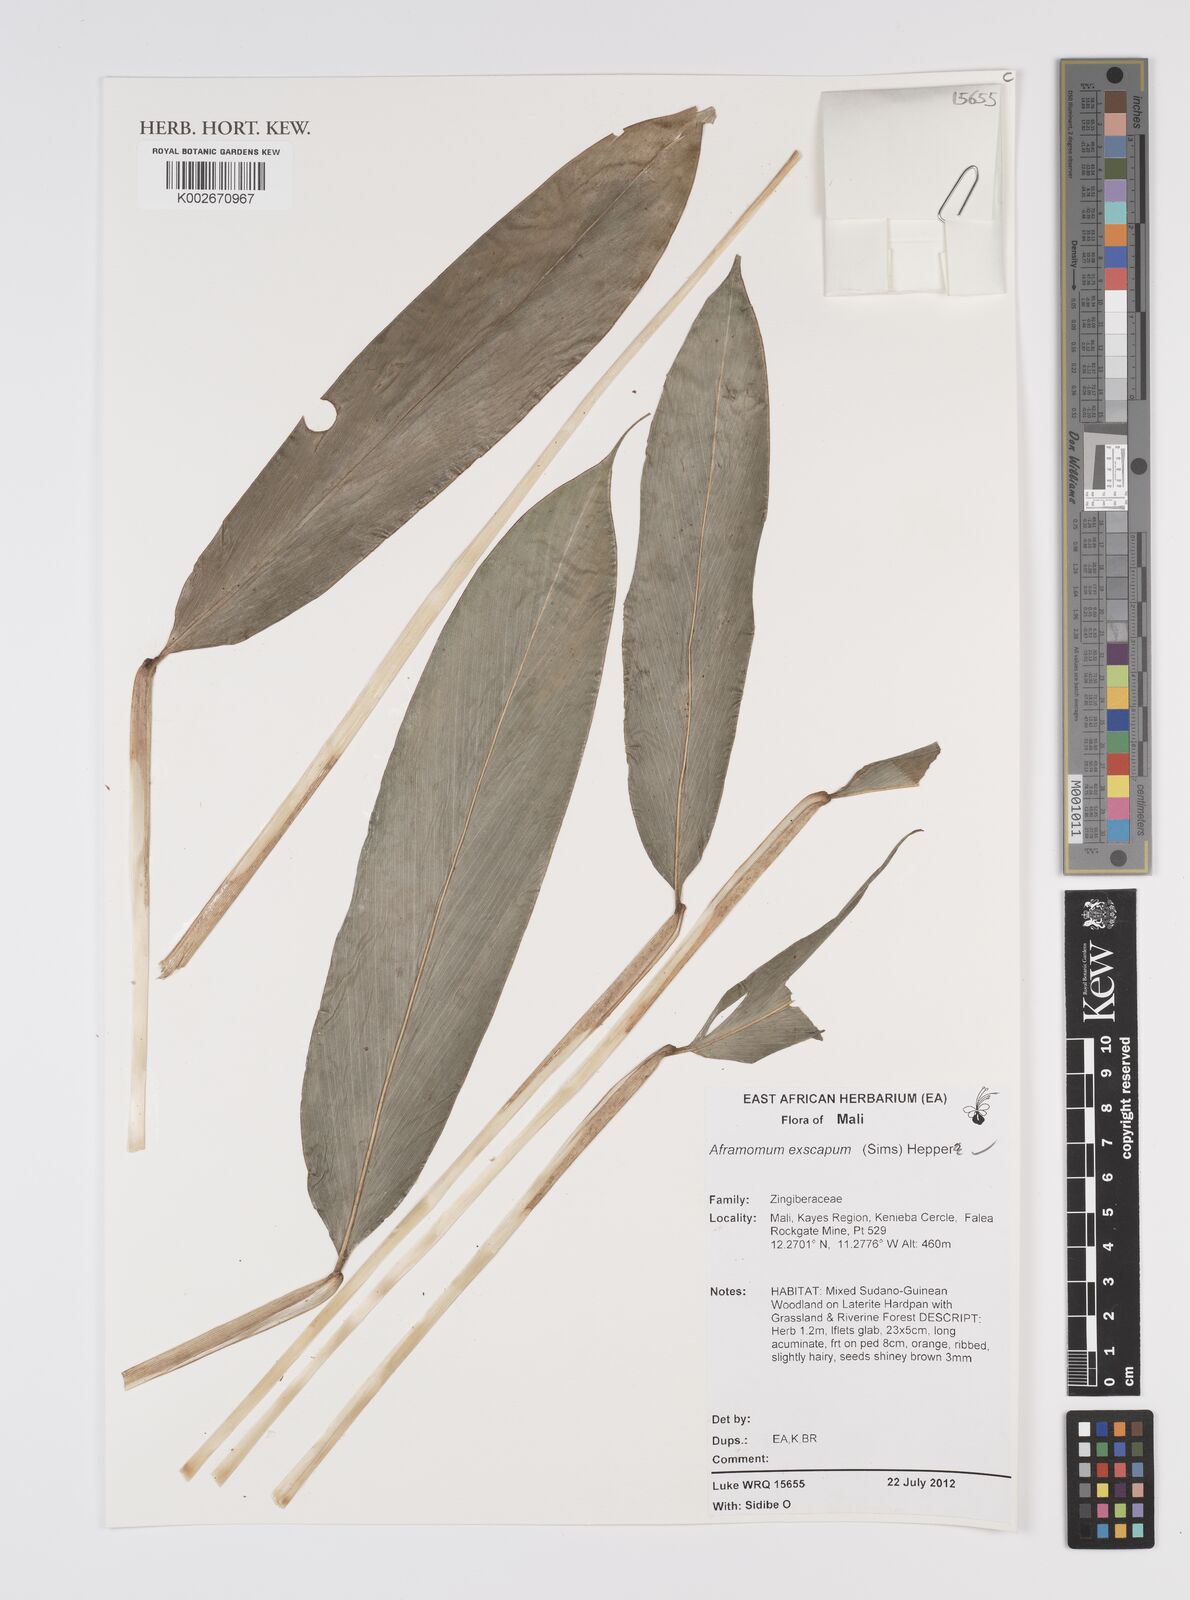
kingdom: Plantae
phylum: Tracheophyta
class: Liliopsida
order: Zingiberales
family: Zingiberaceae
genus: Aframomum
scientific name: Aframomum exscapum
